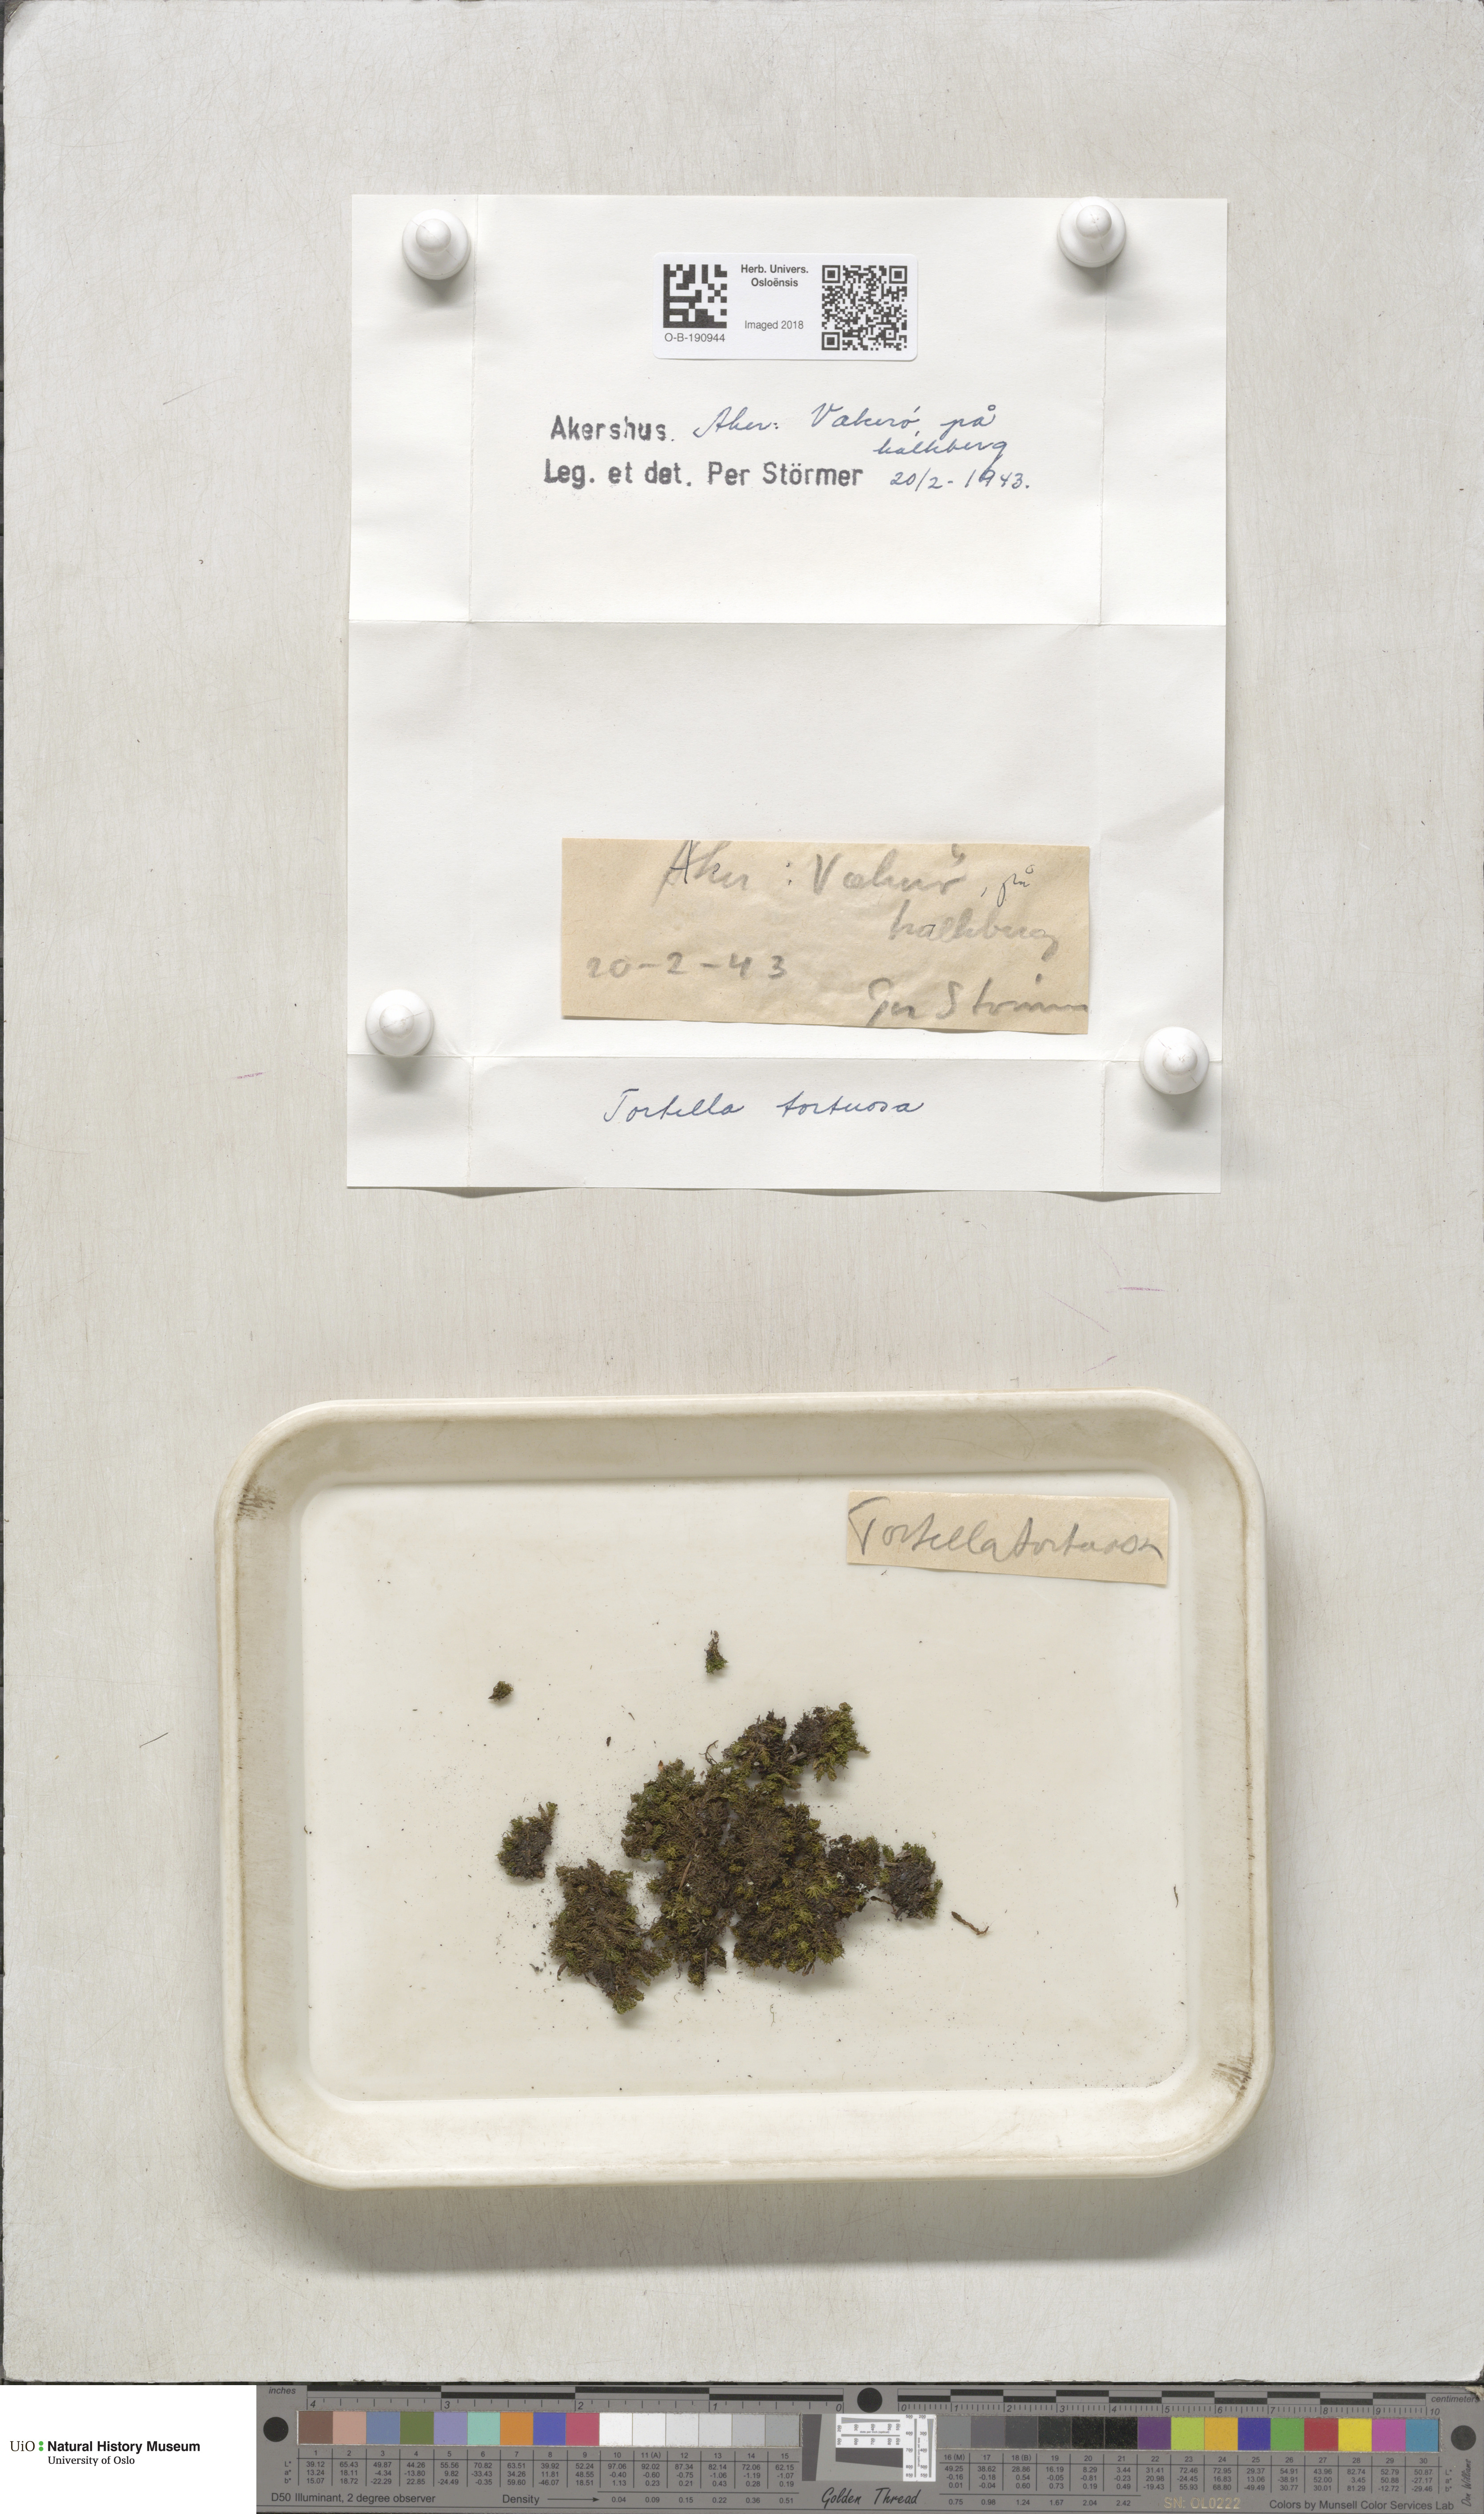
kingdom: Plantae
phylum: Bryophyta
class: Bryopsida
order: Pottiales
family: Pottiaceae
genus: Tortella
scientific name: Tortella tortuosa
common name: Frizzled crisp moss
